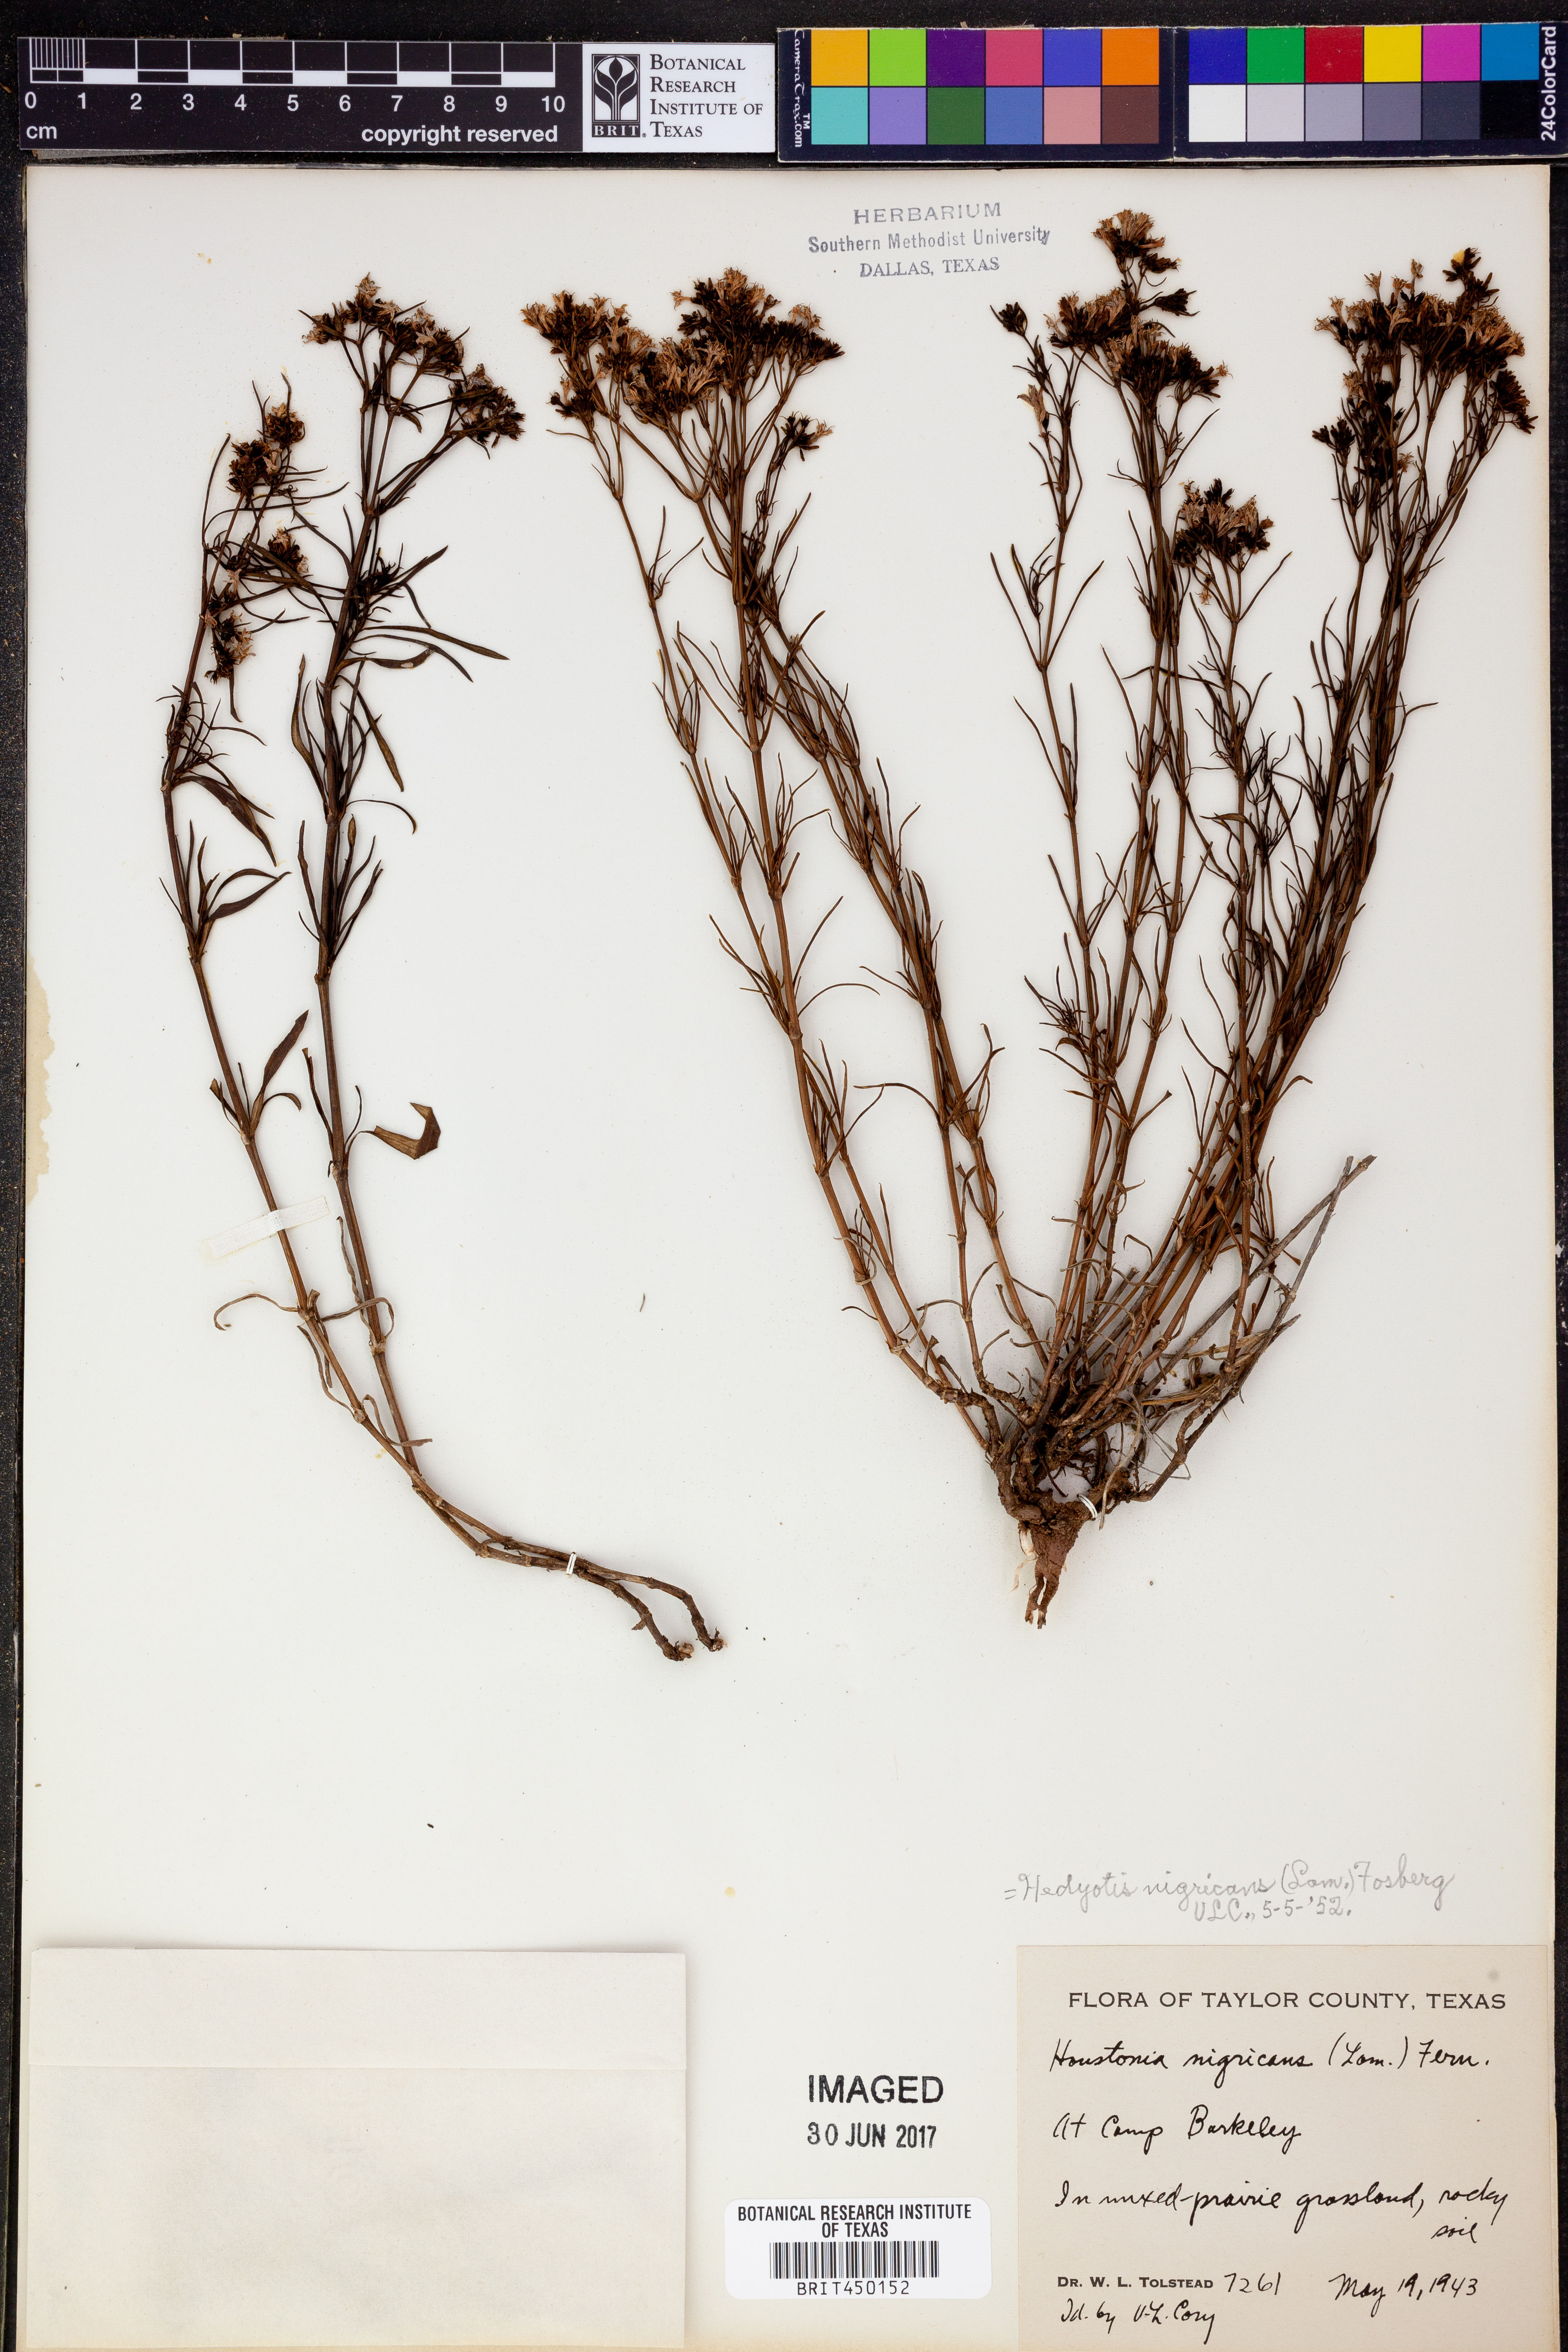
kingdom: Plantae
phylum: Tracheophyta
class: Magnoliopsida
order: Gentianales
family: Rubiaceae
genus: Stenaria
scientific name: Stenaria nigricans
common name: Diamondflowers
